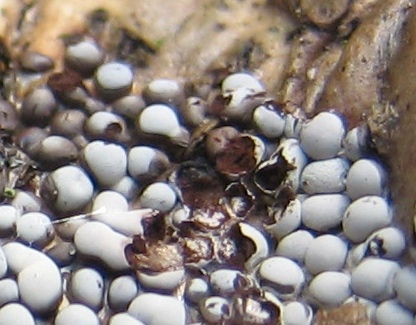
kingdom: Protozoa
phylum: Mycetozoa
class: Myxomycetes
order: Physarales
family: Didymiaceae
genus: Diderma
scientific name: Diderma globosum
